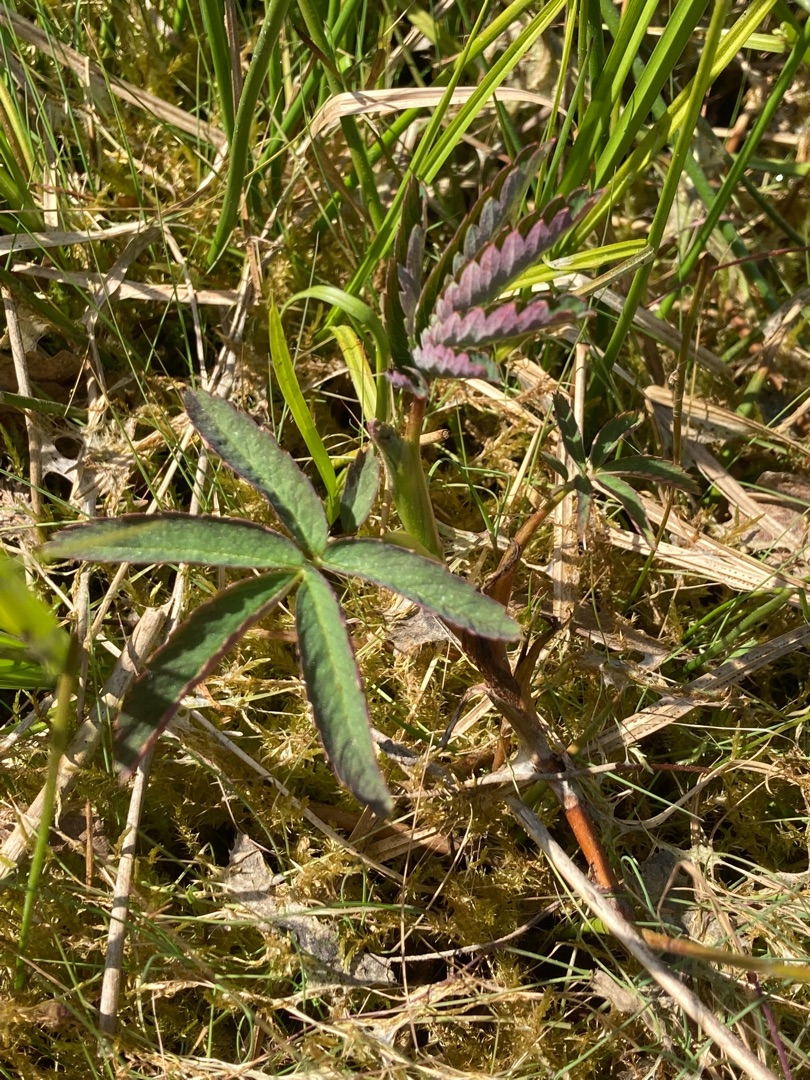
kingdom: Plantae
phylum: Tracheophyta
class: Magnoliopsida
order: Rosales
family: Rosaceae
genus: Comarum
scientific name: Comarum palustre
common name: Kragefod
